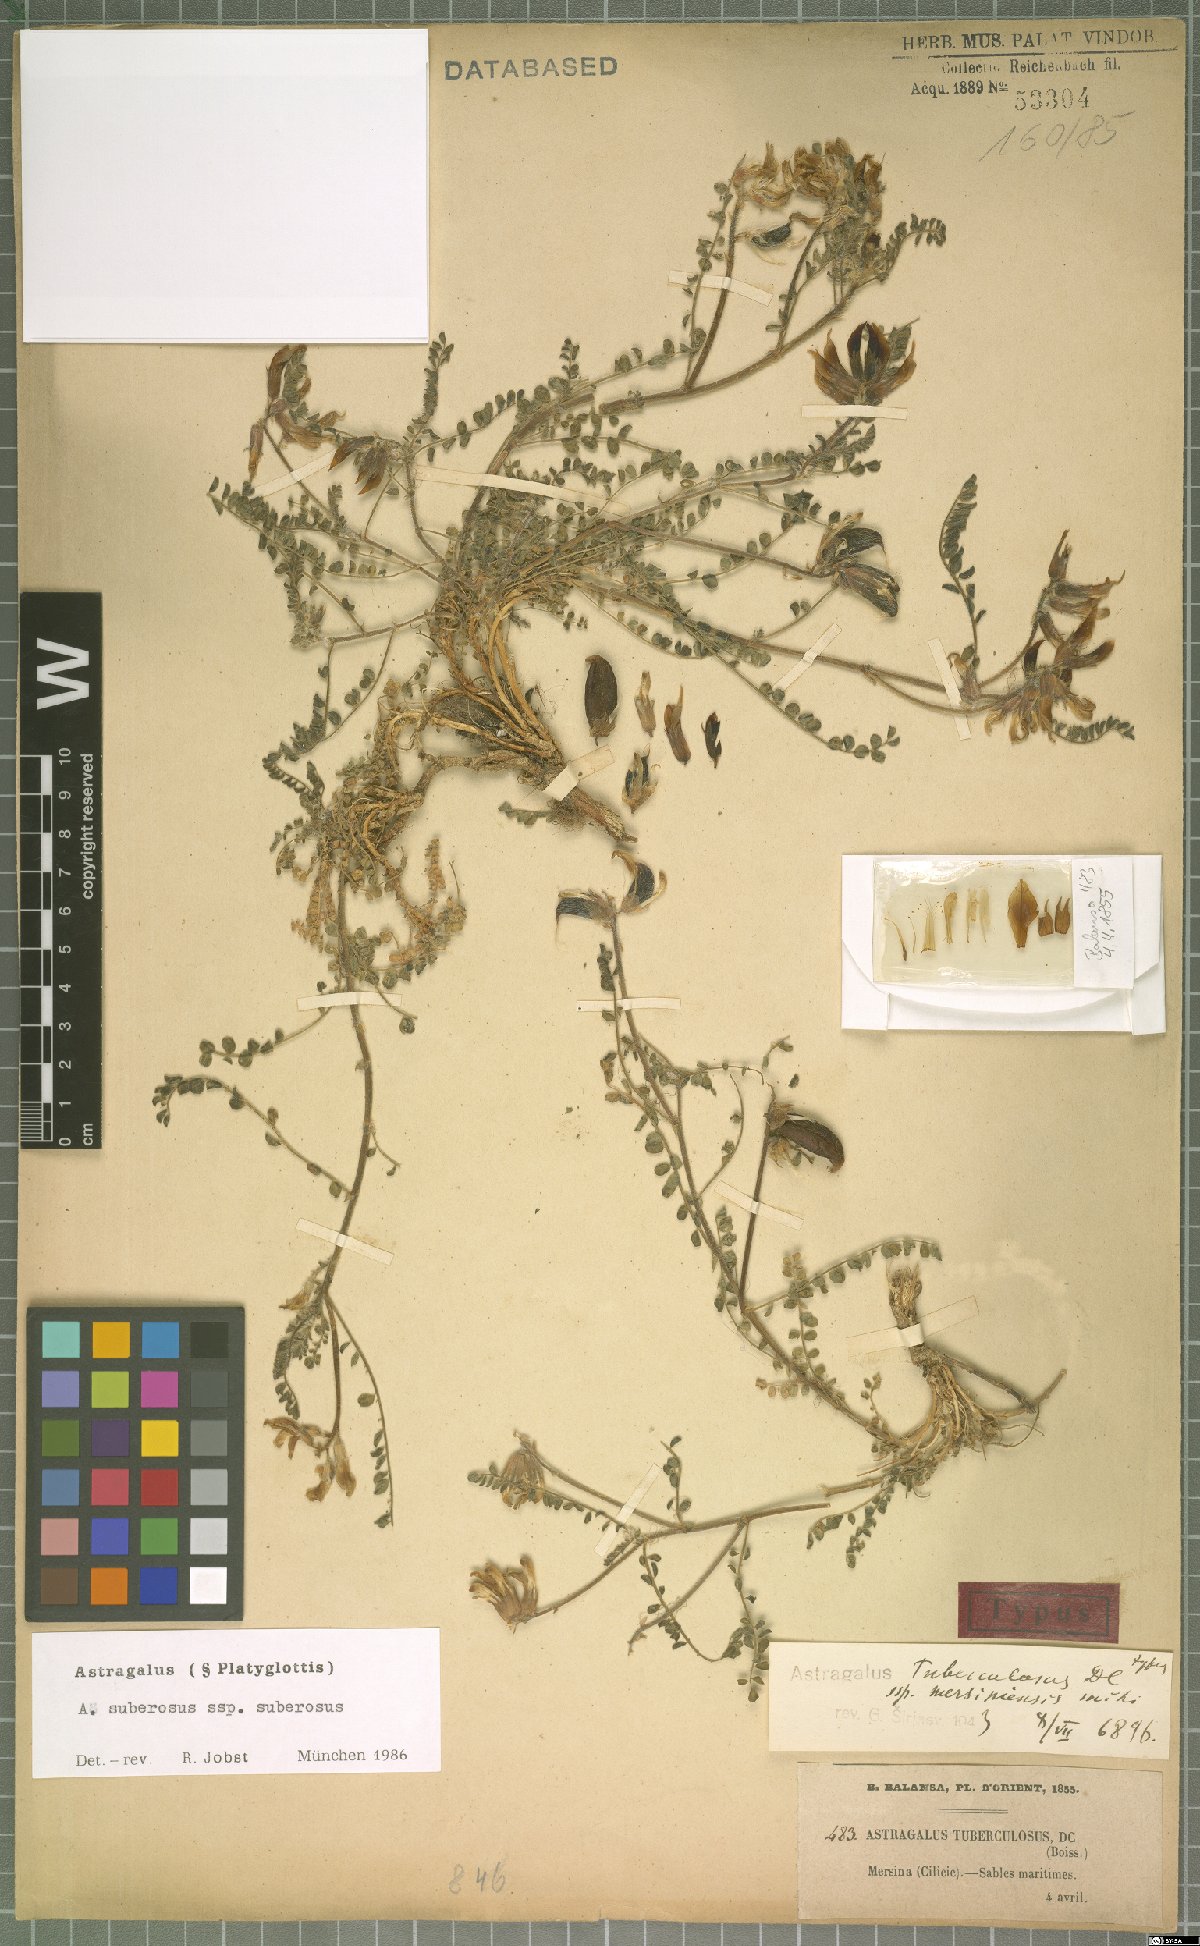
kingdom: Plantae
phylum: Tracheophyta
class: Magnoliopsida
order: Fabales
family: Fabaceae
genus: Astragalus
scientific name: Astragalus suberosus
